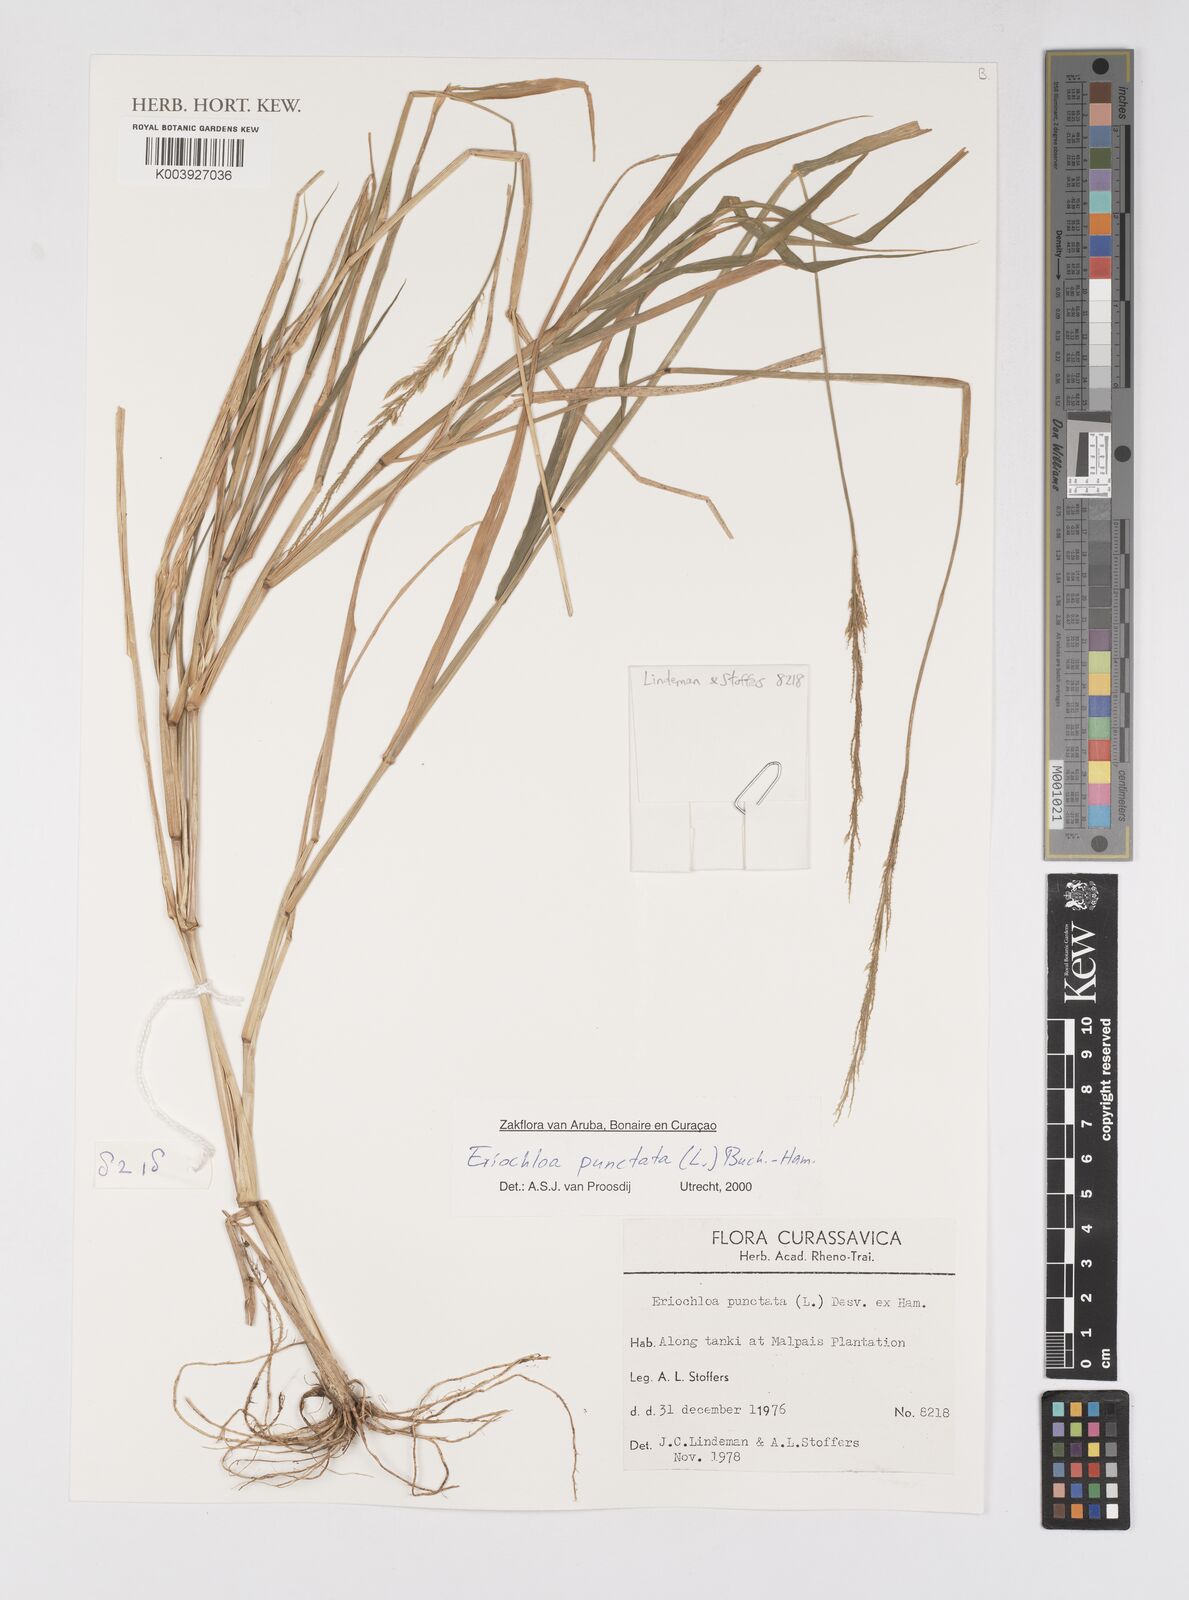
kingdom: Plantae
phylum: Tracheophyta
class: Liliopsida
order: Poales
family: Poaceae
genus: Eriochloa
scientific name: Eriochloa punctata
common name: Louisiana cupgrass
